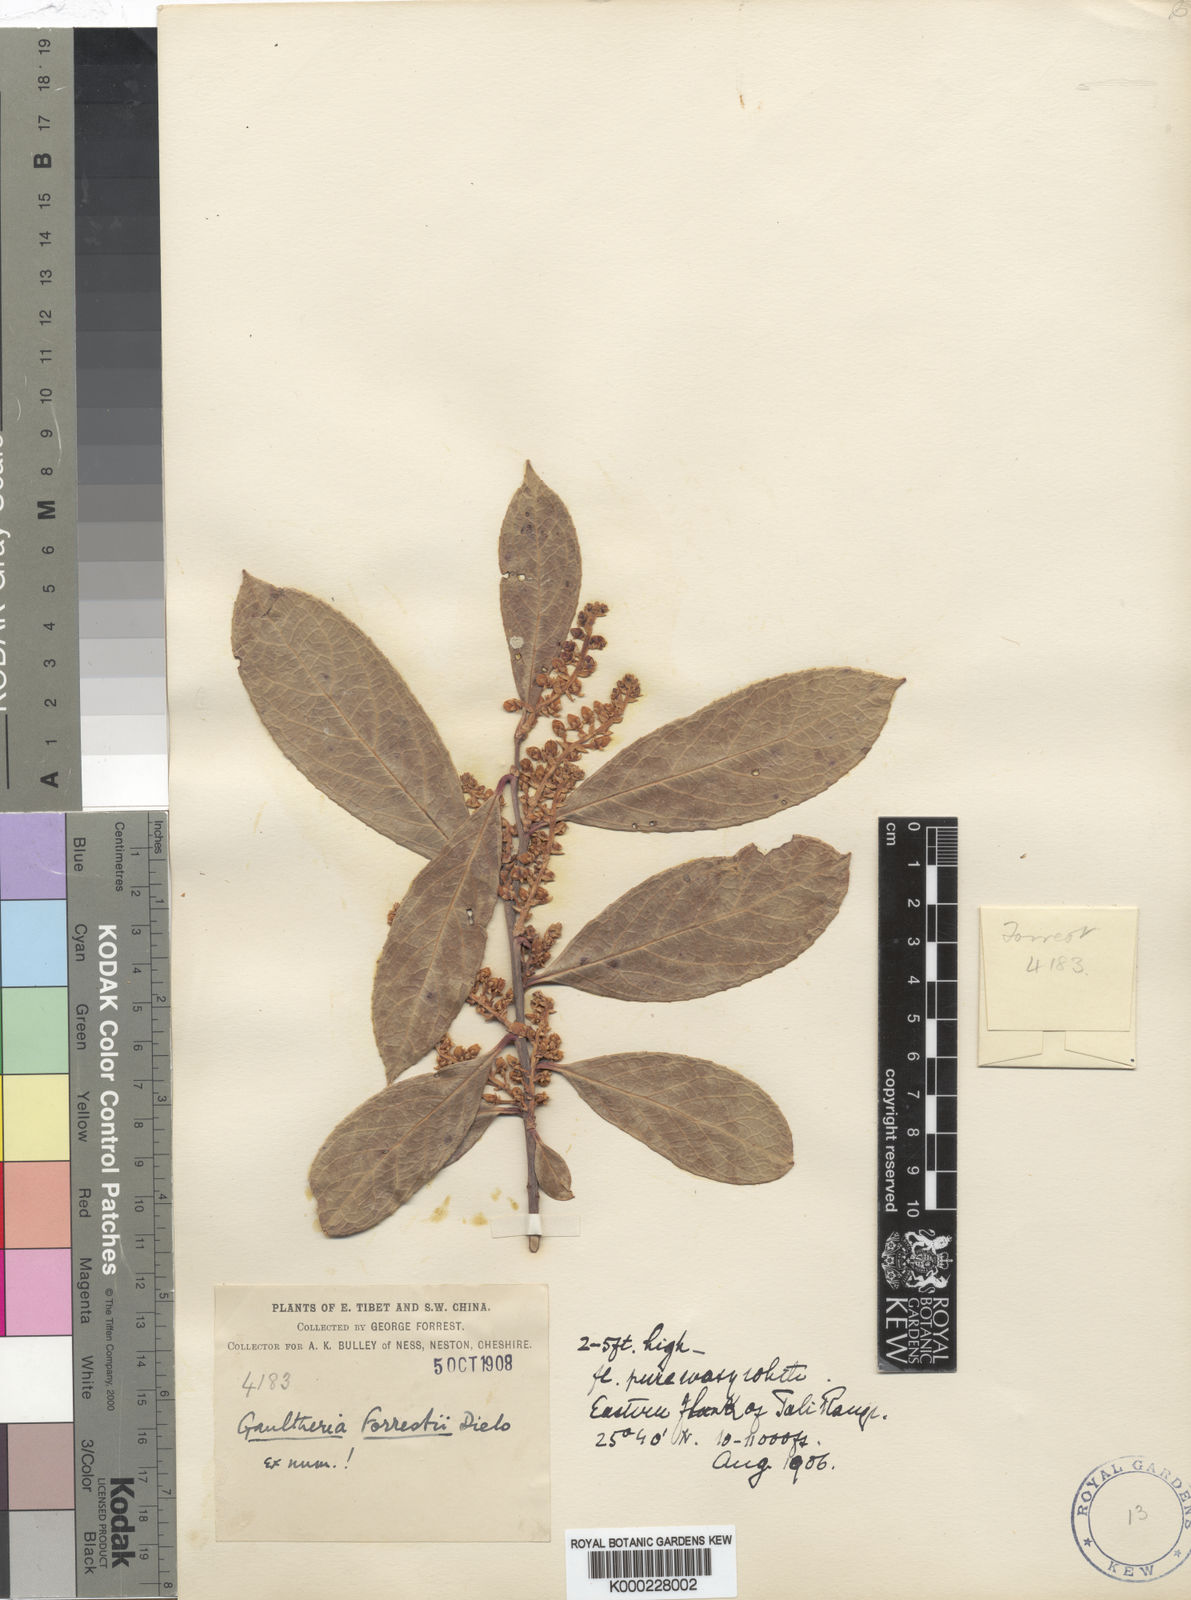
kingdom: Plantae
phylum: Tracheophyta
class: Magnoliopsida
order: Ericales
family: Ericaceae
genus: Gaultheria
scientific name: Gaultheria fragrantissima
